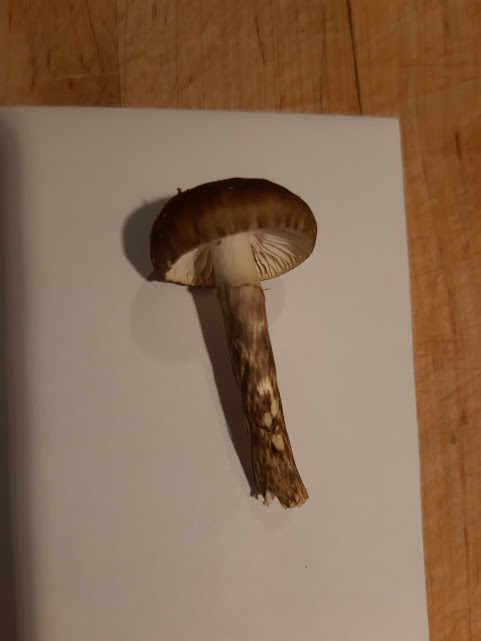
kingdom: Fungi
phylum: Basidiomycota
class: Agaricomycetes
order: Agaricales
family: Hygrophoraceae
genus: Hygrophorus
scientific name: Hygrophorus
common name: sneglehat
